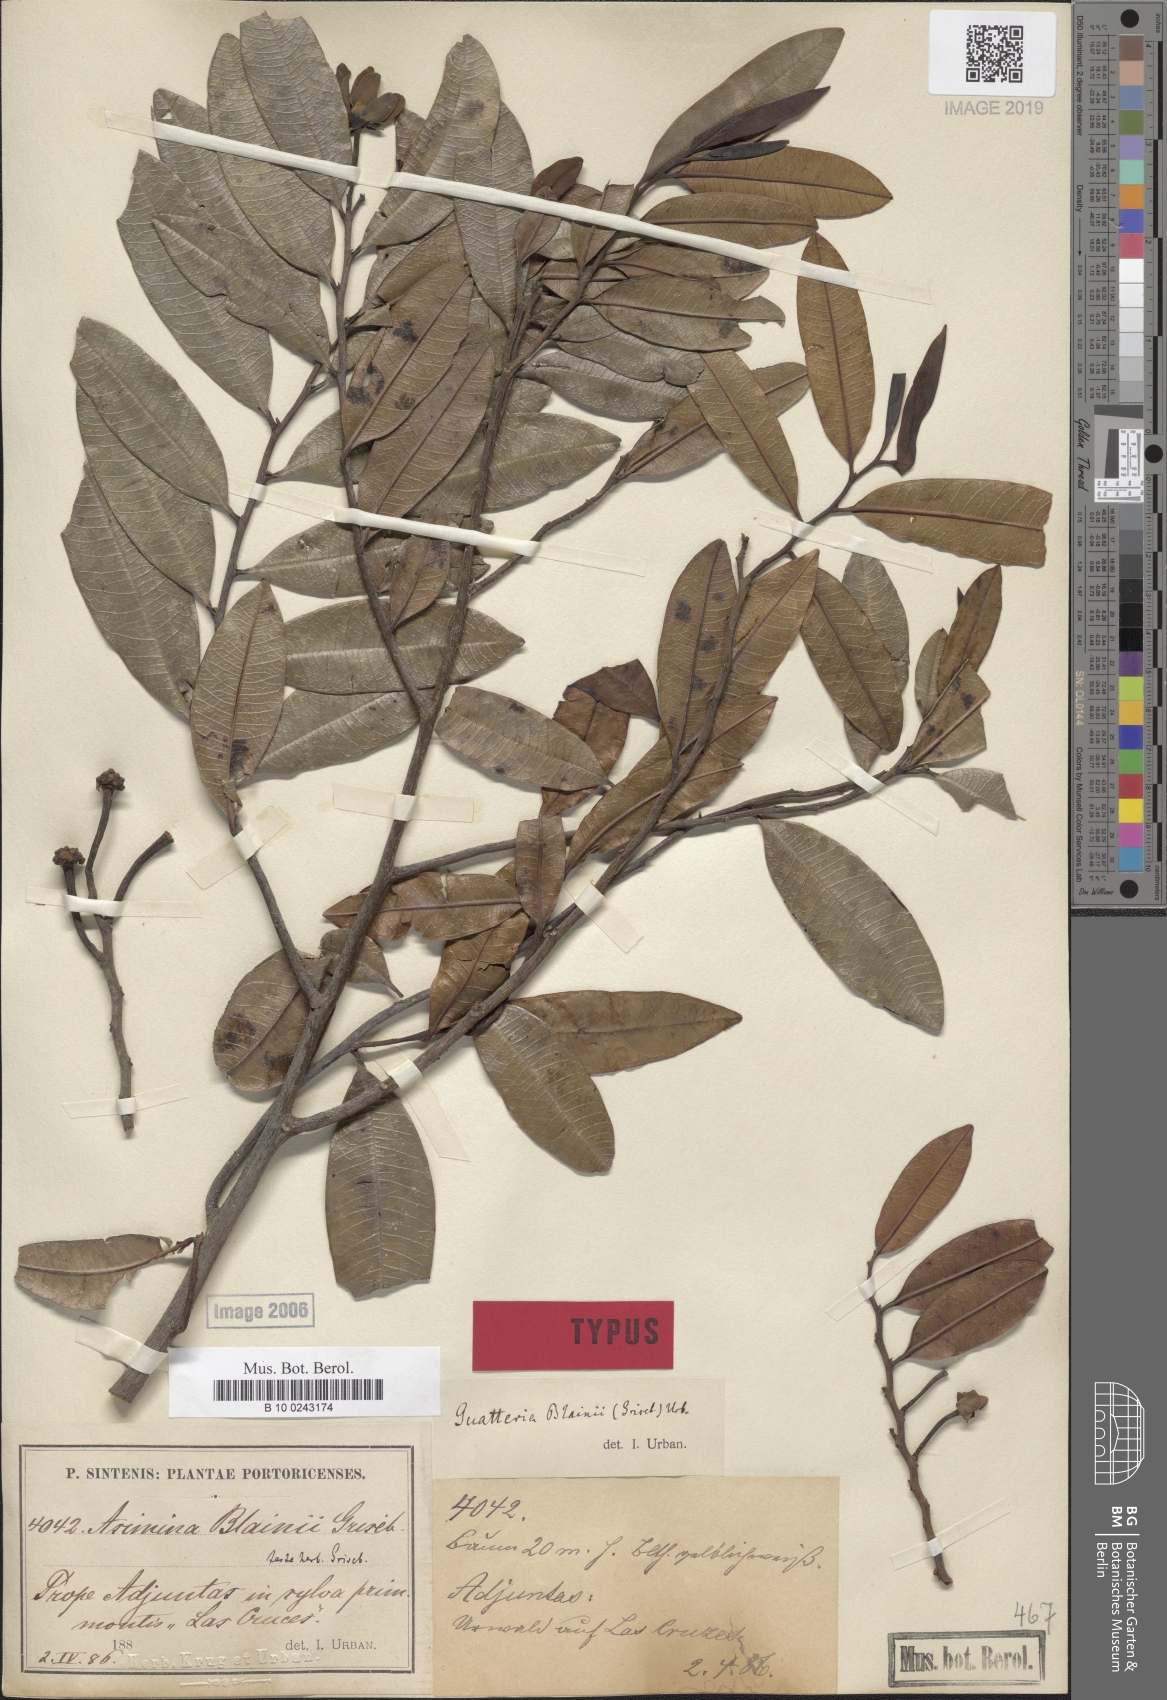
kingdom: Plantae
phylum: Tracheophyta
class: Magnoliopsida
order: Magnoliales
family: Annonaceae
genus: Guatteria
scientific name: Guatteria blainii
